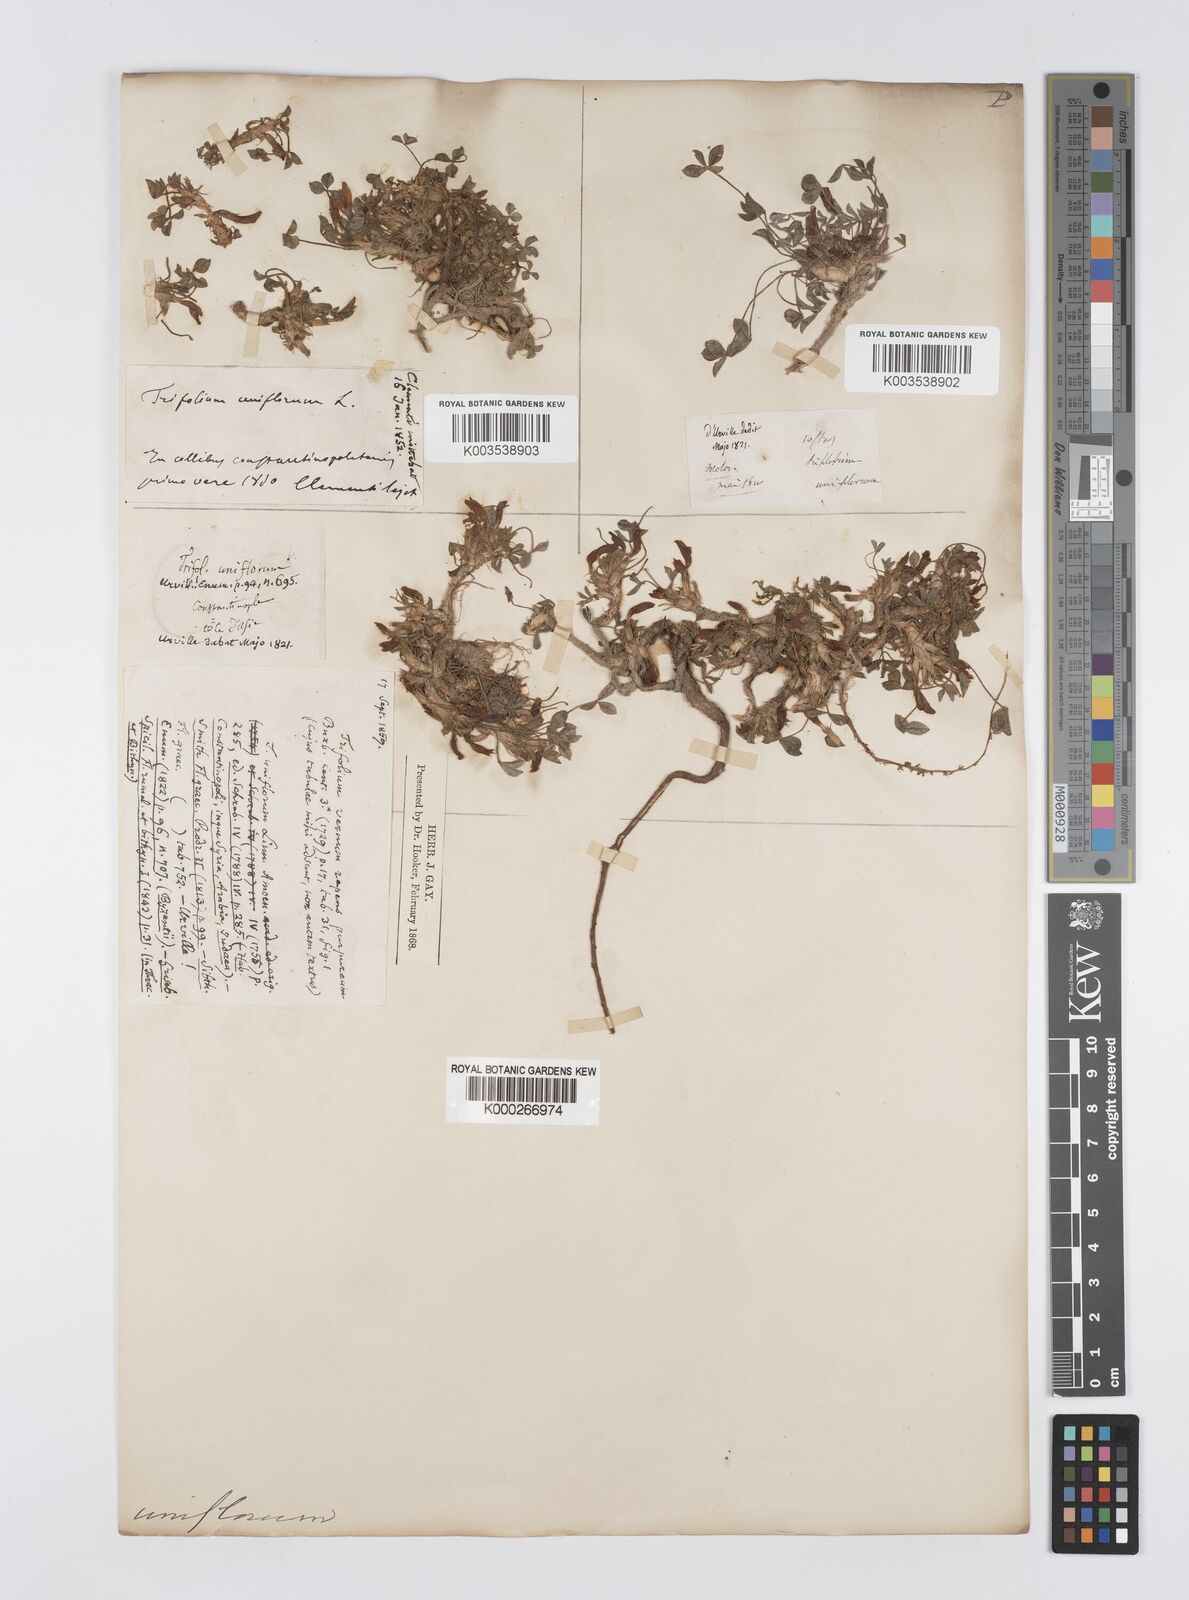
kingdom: Plantae
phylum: Tracheophyta
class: Magnoliopsida
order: Fabales
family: Fabaceae
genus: Trifolium
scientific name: Trifolium uniflorum
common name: One-flower clover
